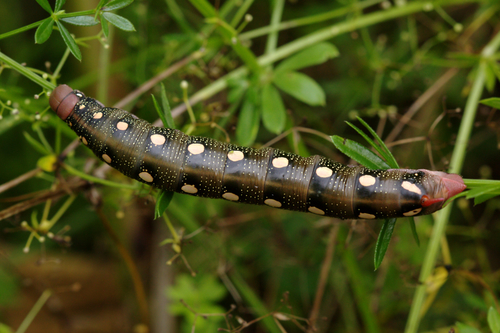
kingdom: Animalia
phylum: Arthropoda
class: Insecta
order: Lepidoptera
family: Sphingidae
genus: Hyles
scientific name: Hyles gallii
